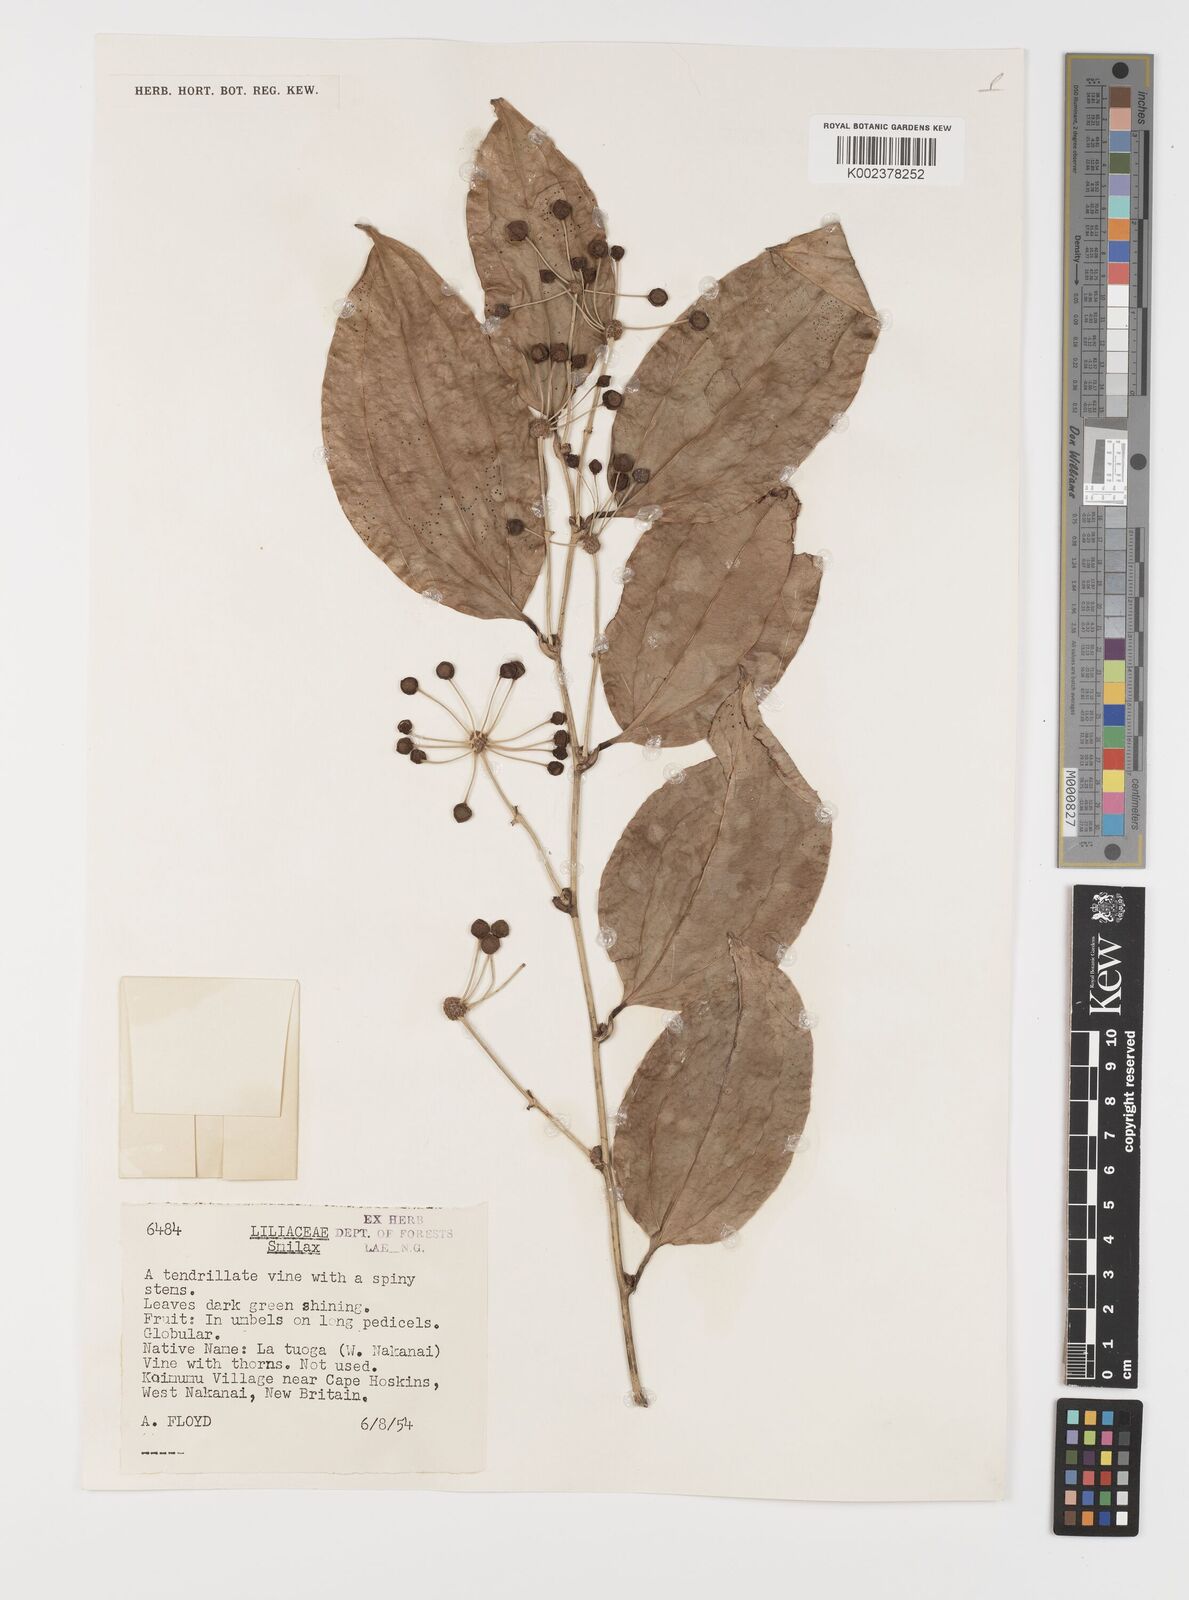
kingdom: Plantae
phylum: Tracheophyta
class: Liliopsida
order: Liliales
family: Smilacaceae
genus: Smilax
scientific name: Smilax
